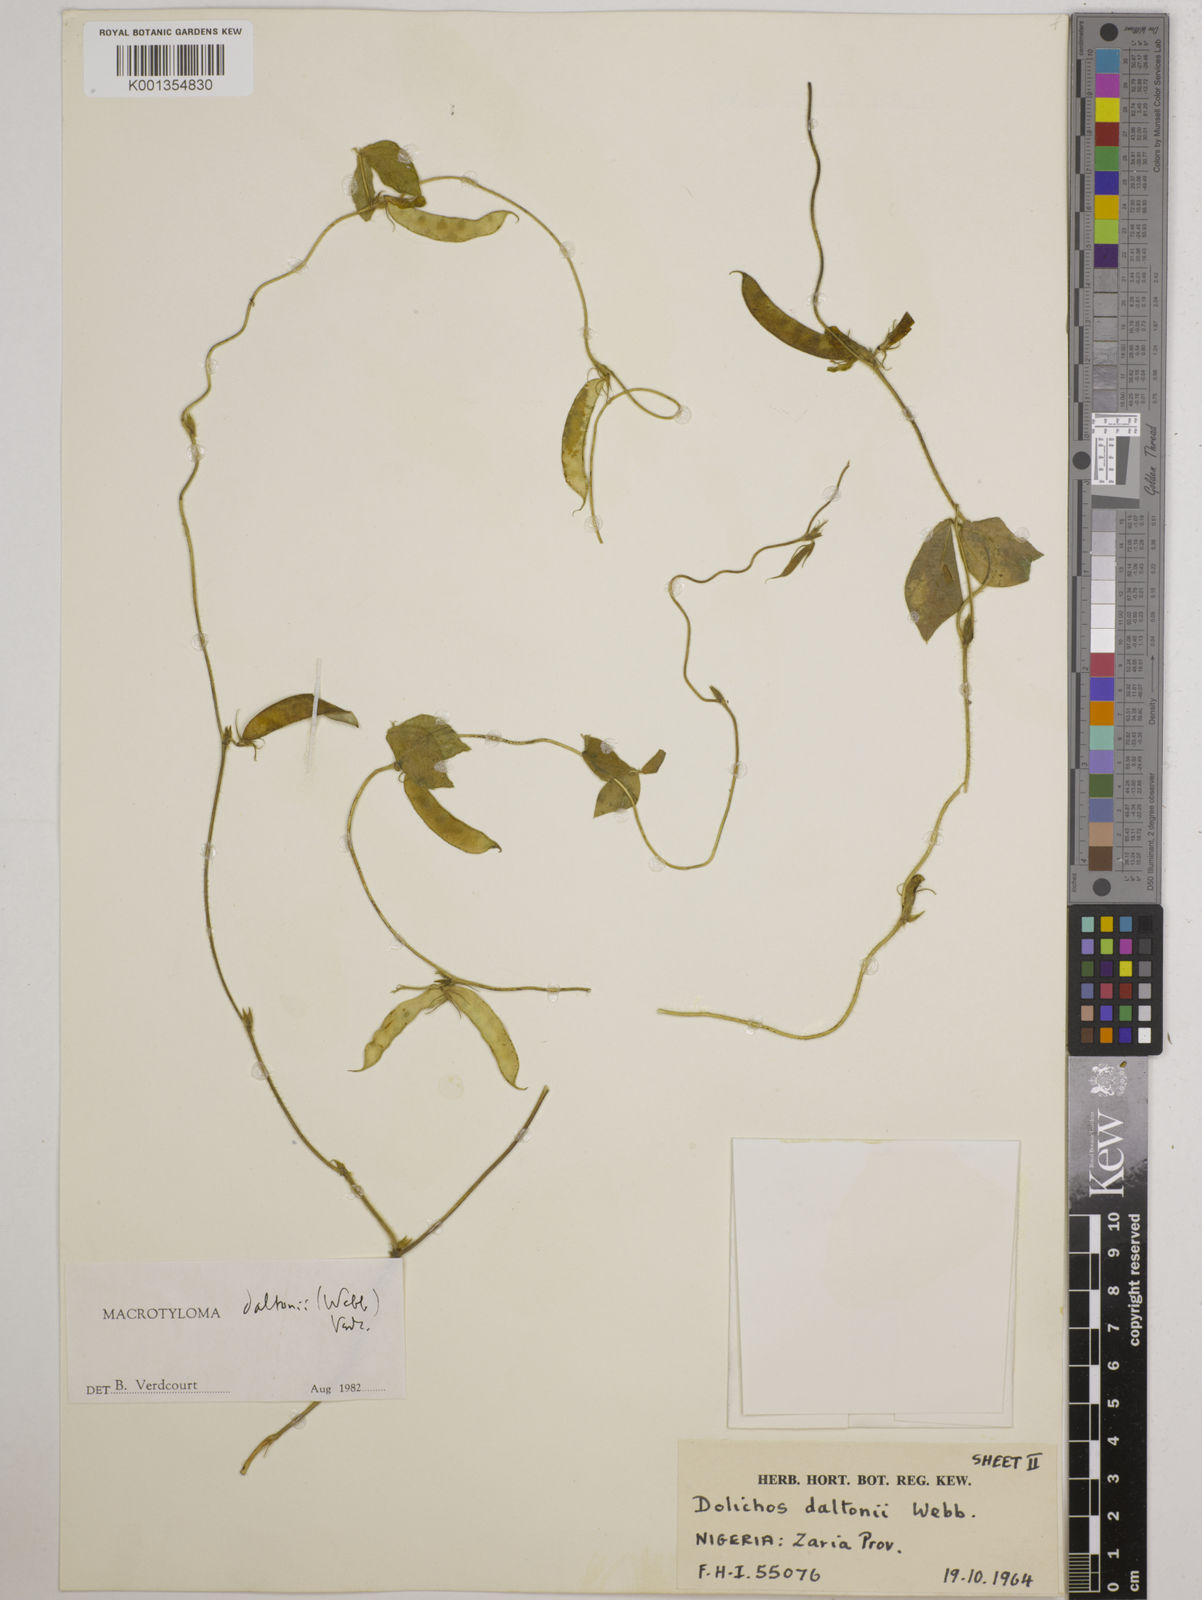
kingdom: Plantae
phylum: Tracheophyta
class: Magnoliopsida
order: Fabales
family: Fabaceae
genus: Macrotyloma
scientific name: Macrotyloma daltonii
